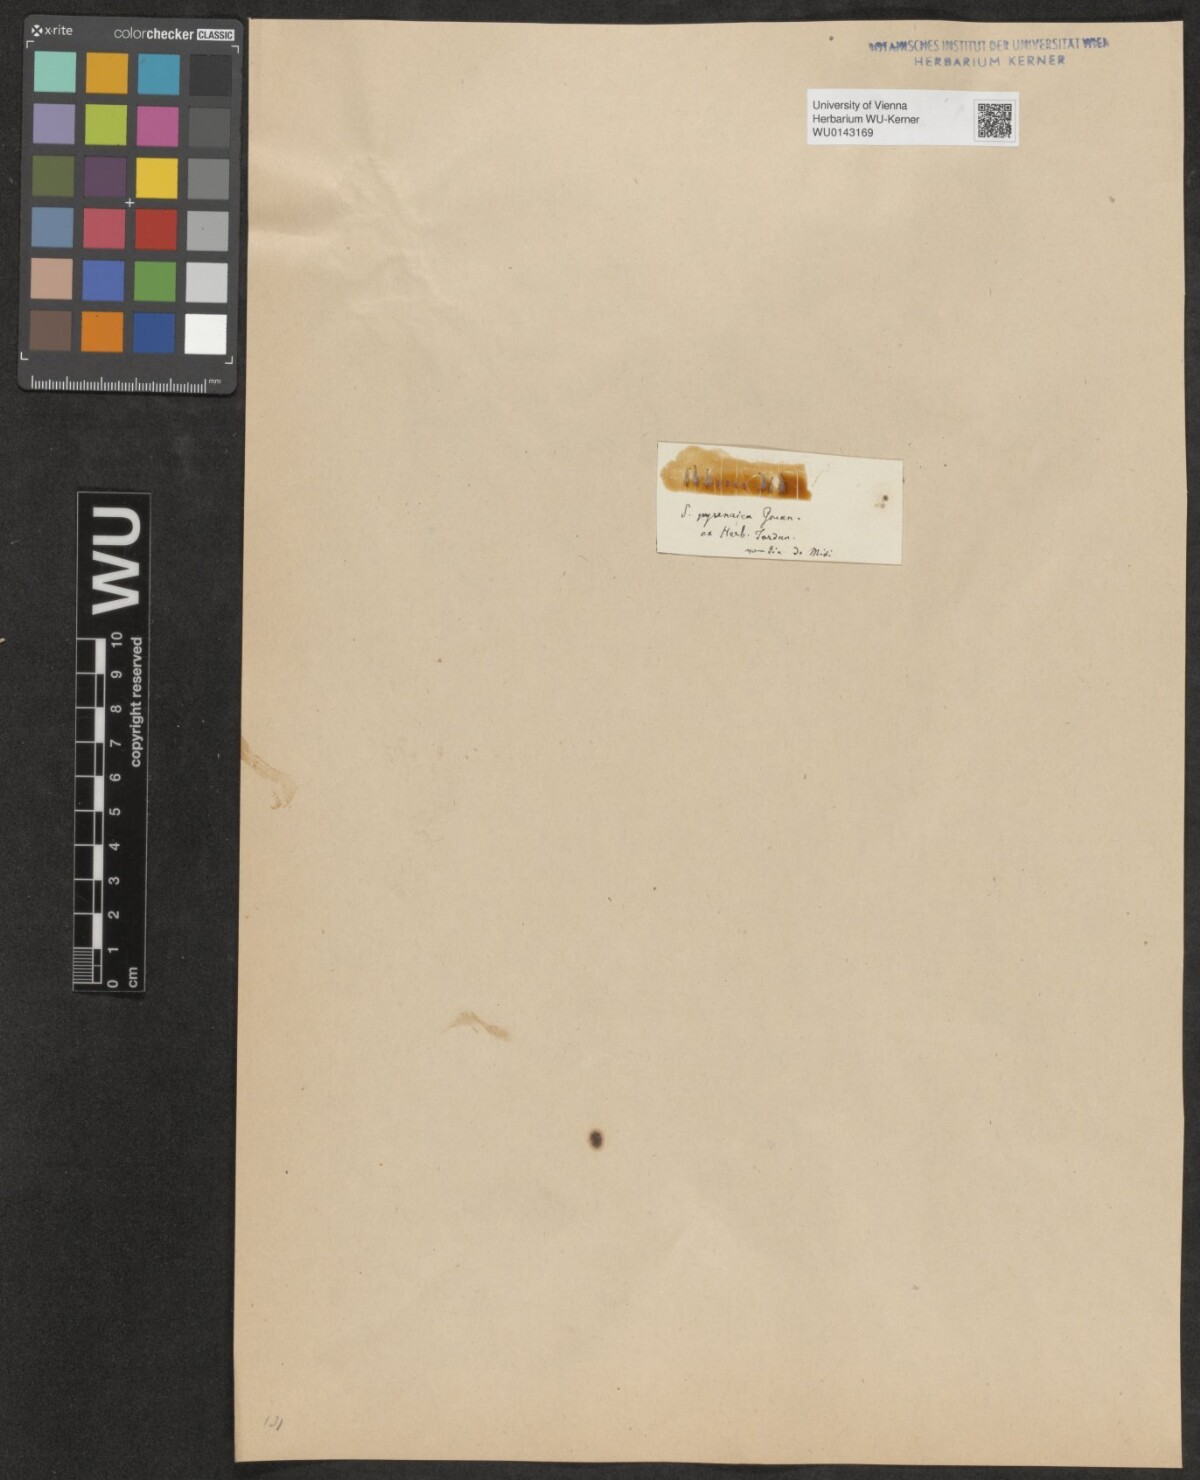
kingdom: Plantae
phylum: Tracheophyta
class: Magnoliopsida
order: Malpighiales
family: Salicaceae
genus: Salix
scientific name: Salix pyrenaica
